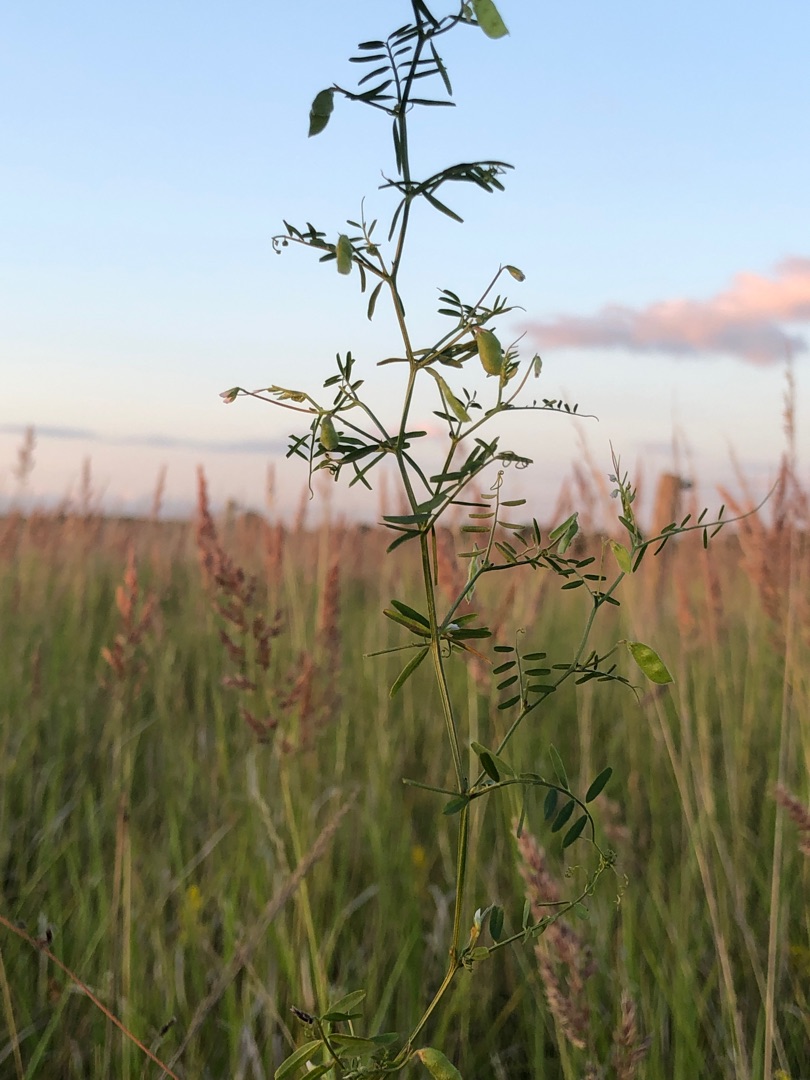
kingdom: Plantae
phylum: Tracheophyta
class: Magnoliopsida
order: Fabales
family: Fabaceae
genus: Vicia
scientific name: Vicia hirsuta
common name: Tofrøet vikke
